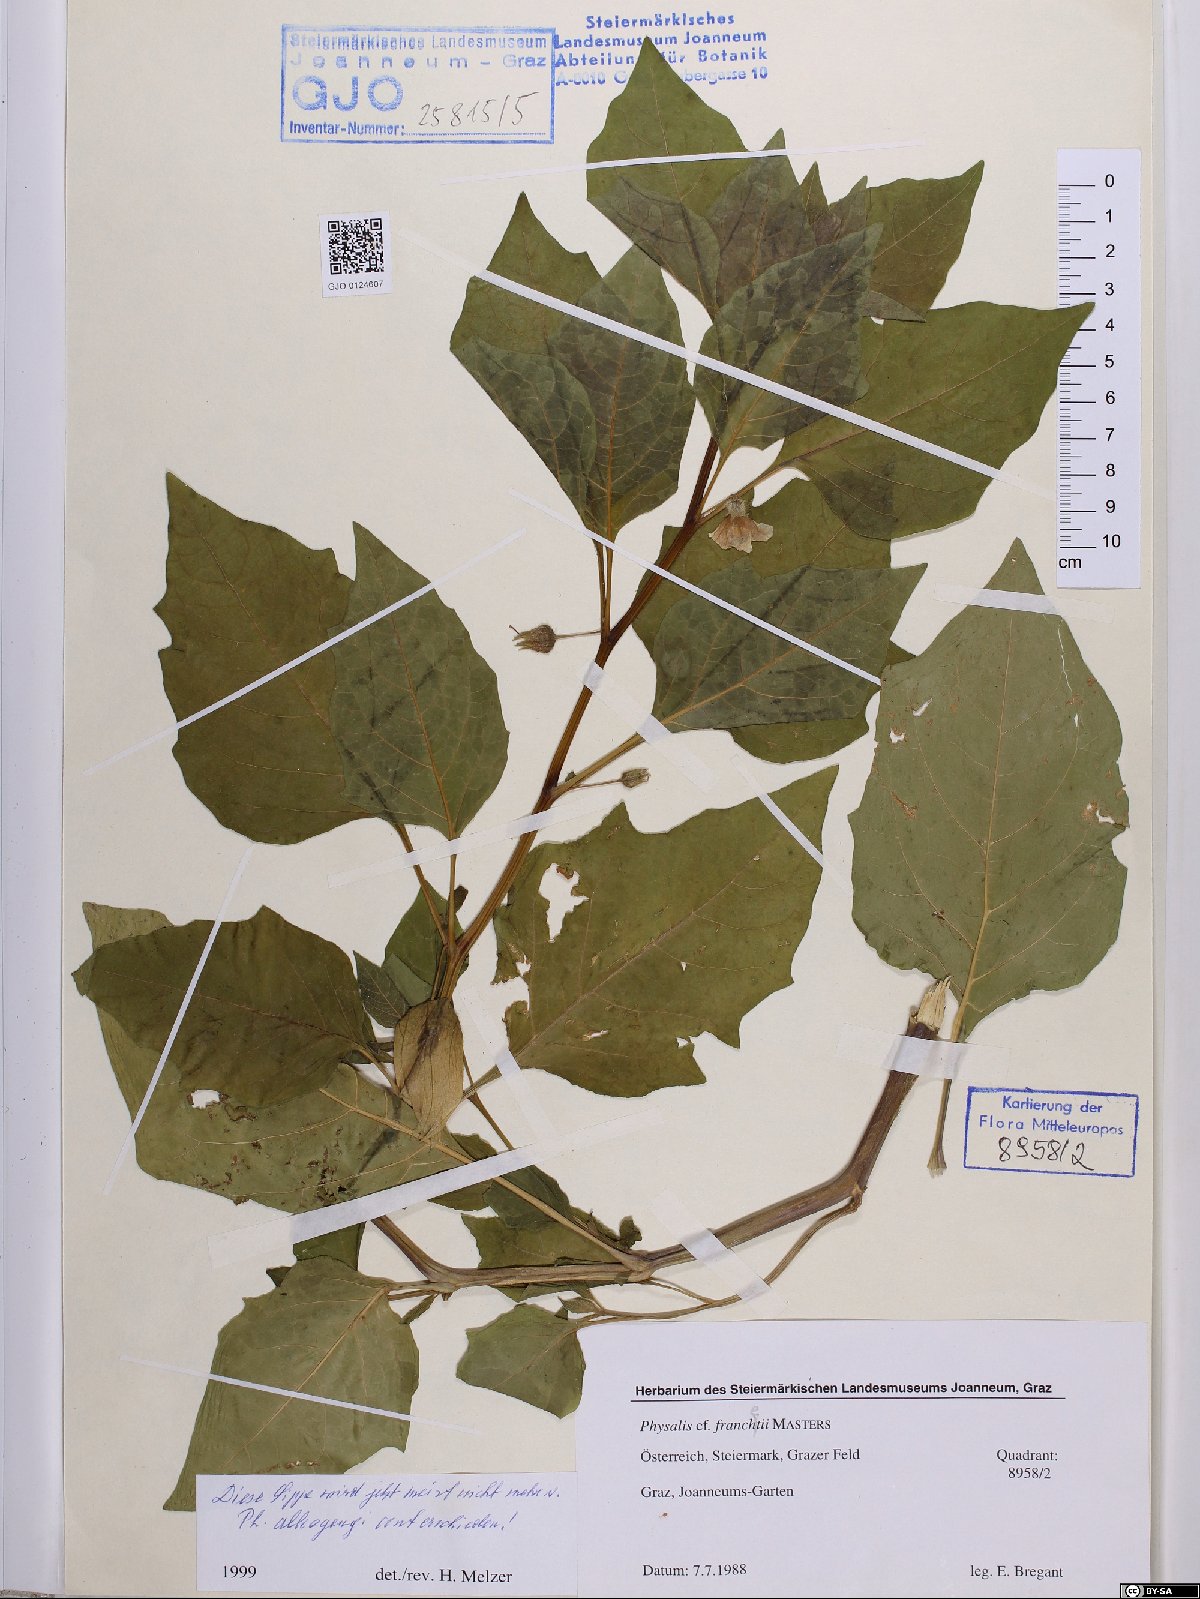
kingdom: Plantae
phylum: Tracheophyta
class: Magnoliopsida
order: Solanales
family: Solanaceae
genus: Alkekengi
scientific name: Alkekengi officinarum
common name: Japanese-lantern
